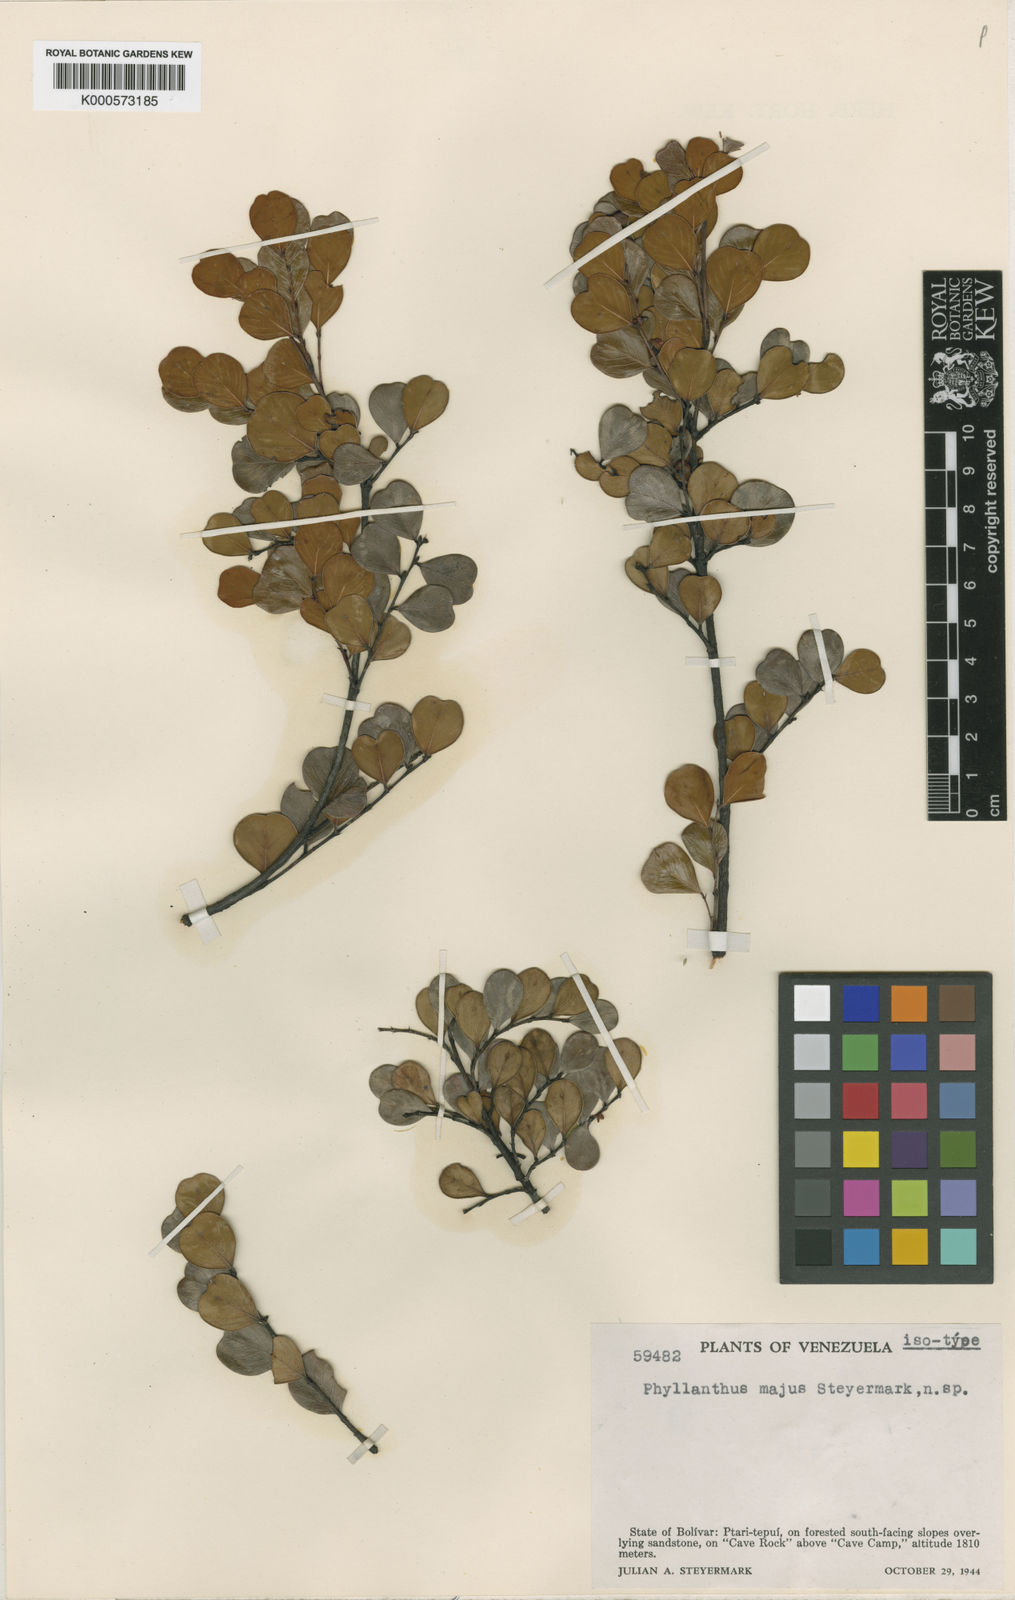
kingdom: Plantae
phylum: Tracheophyta
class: Magnoliopsida
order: Malpighiales
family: Phyllanthaceae
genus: Phyllanthus
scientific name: Phyllanthus
